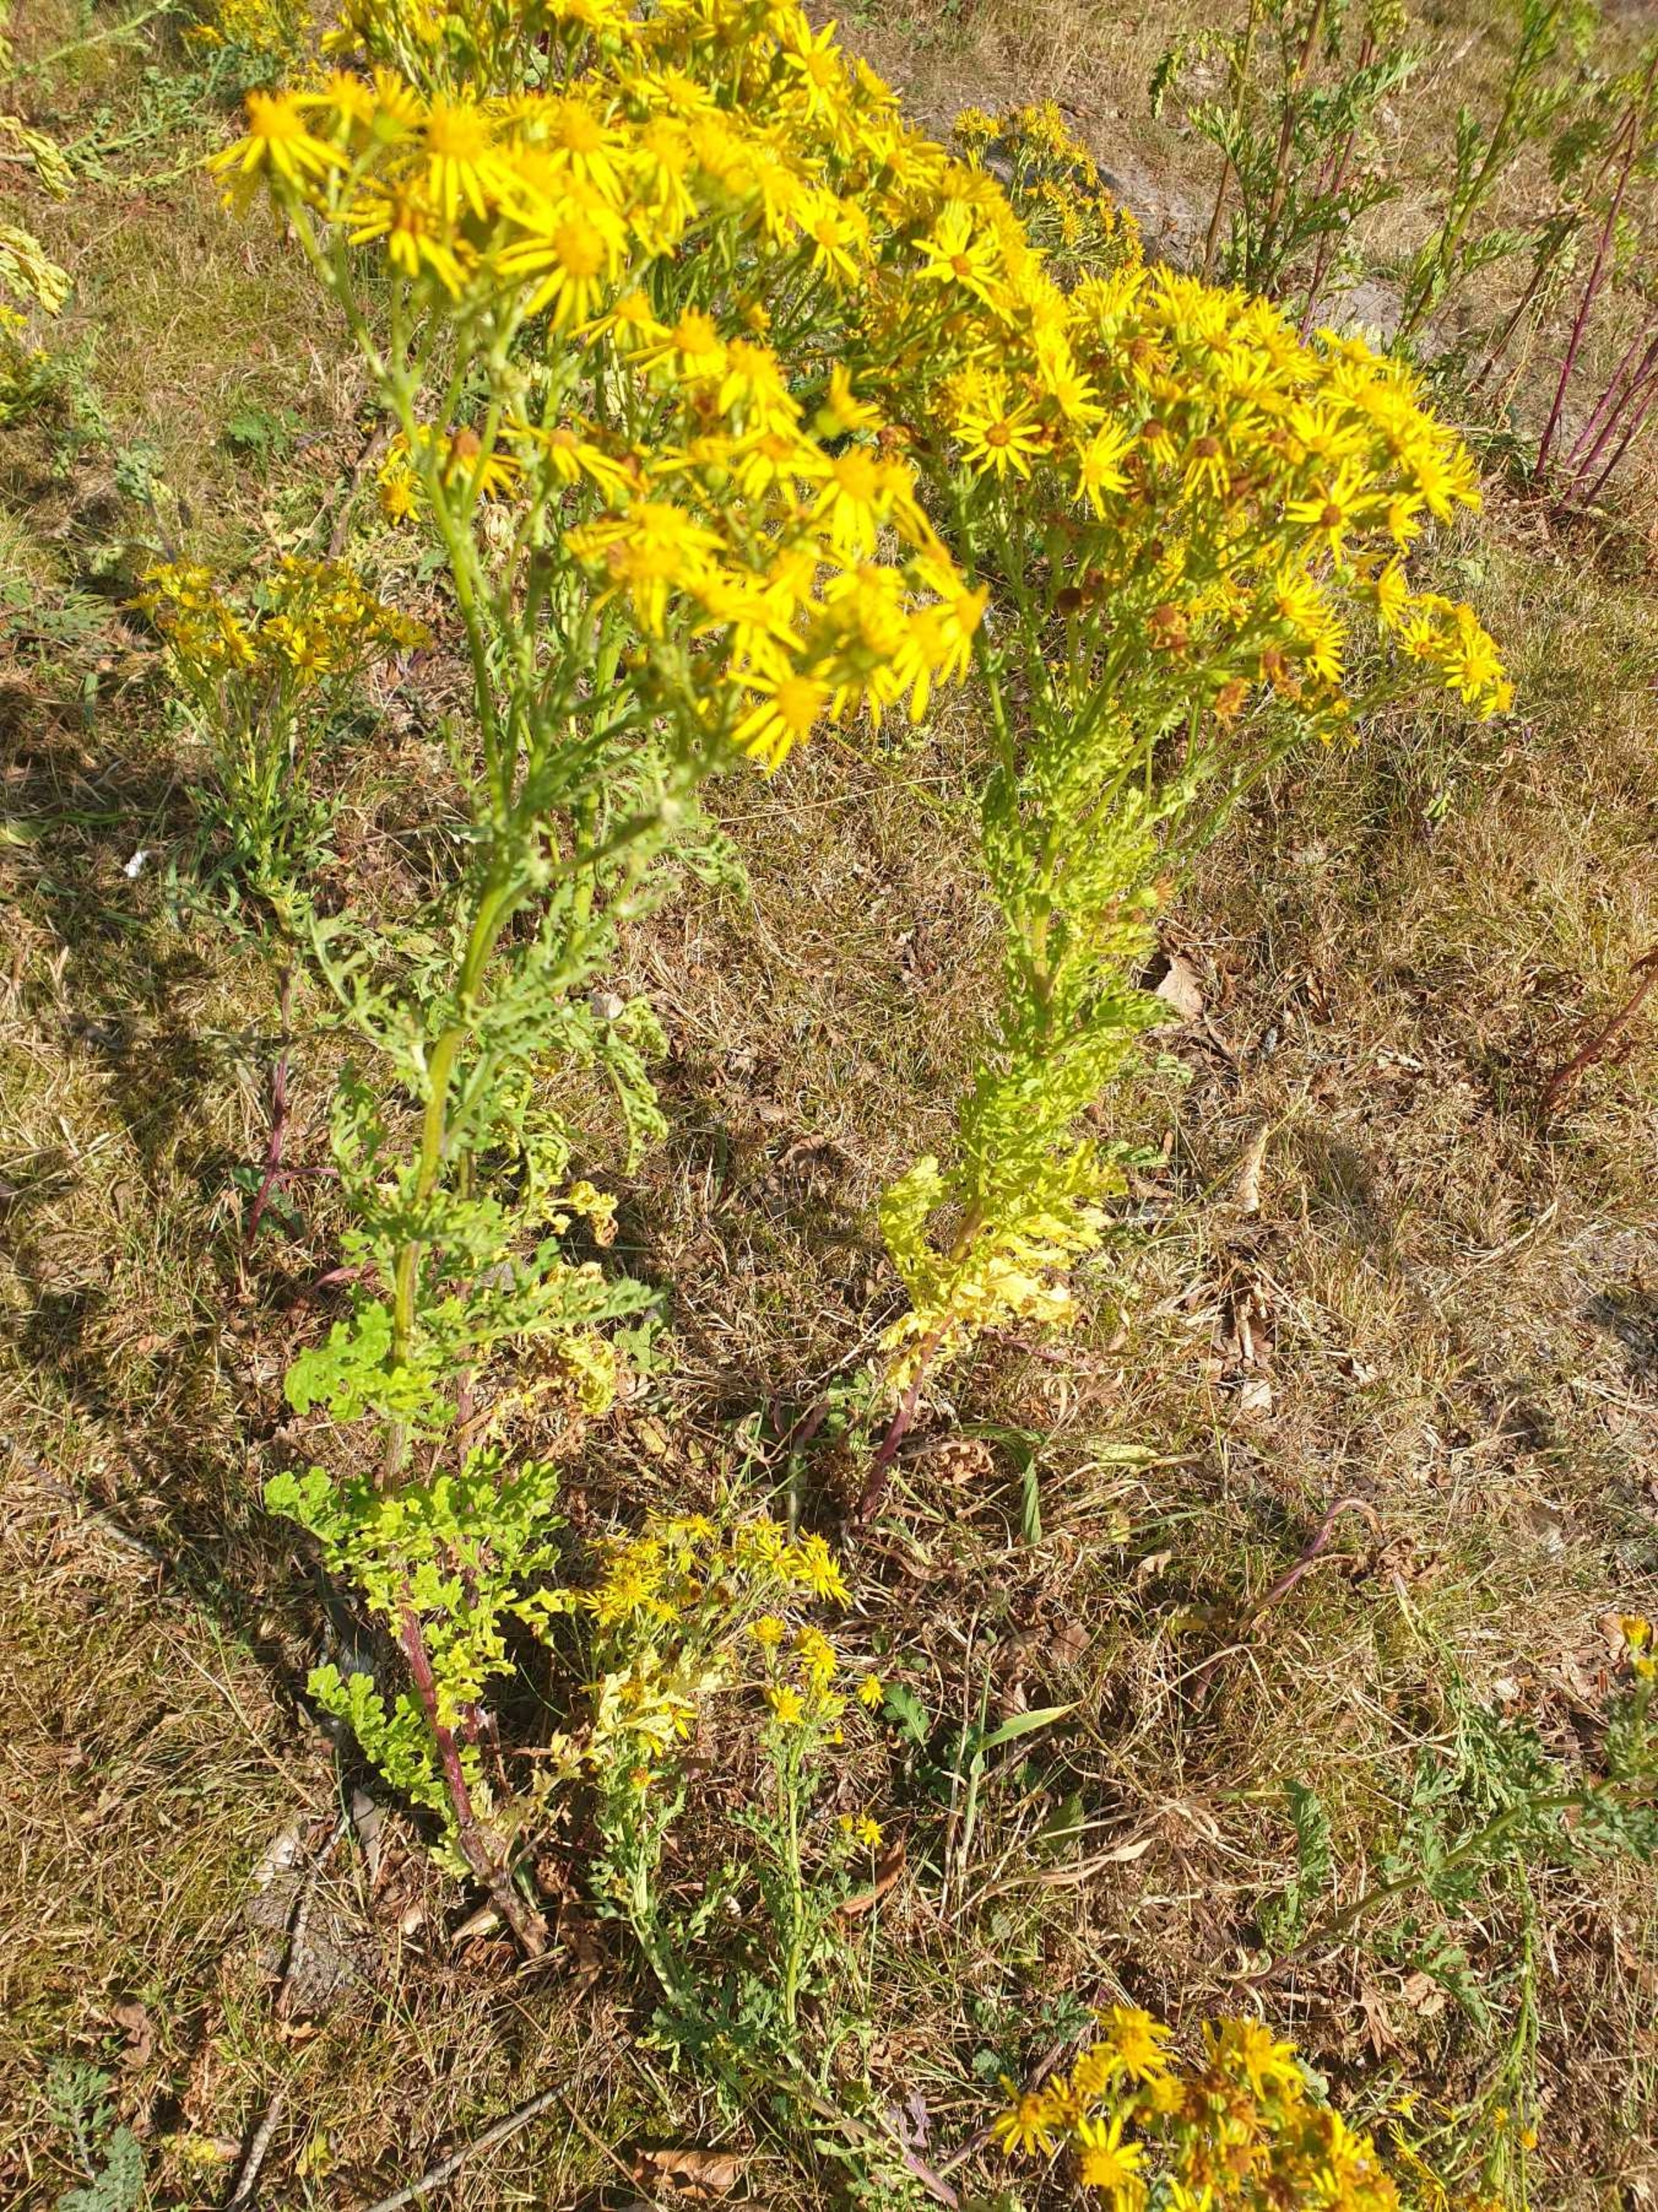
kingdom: Plantae
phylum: Tracheophyta
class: Magnoliopsida
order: Asterales
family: Asteraceae
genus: Jacobaea
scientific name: Jacobaea vulgaris
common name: Eng-brandbæger
